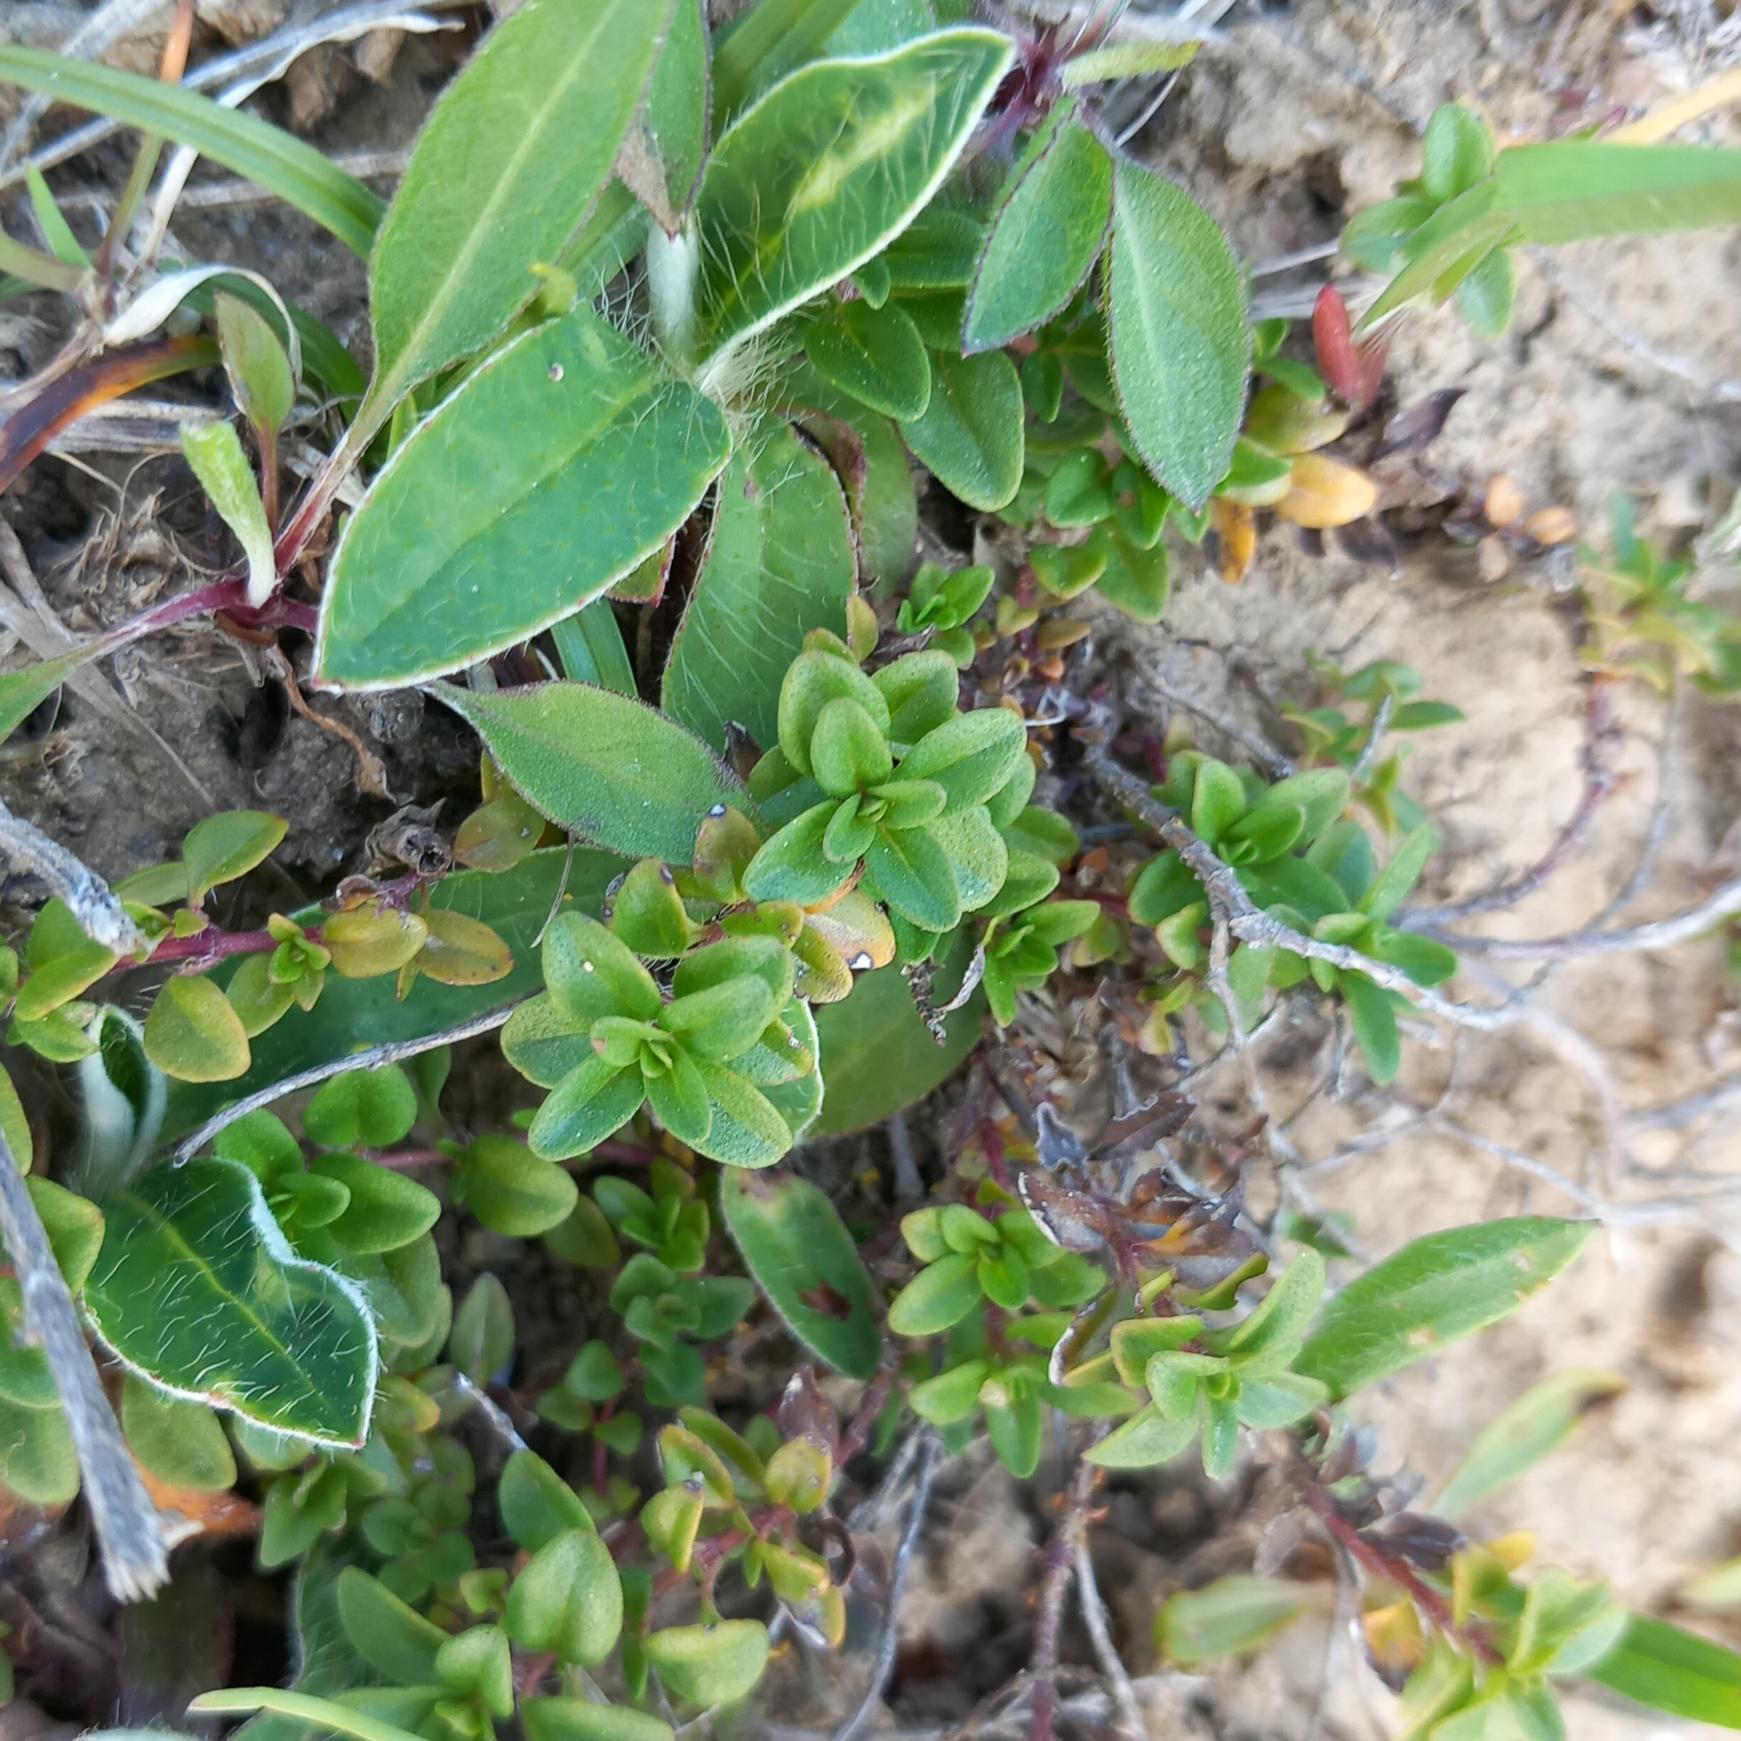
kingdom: Plantae
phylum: Tracheophyta
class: Magnoliopsida
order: Lamiales
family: Lamiaceae
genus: Thymus
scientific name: Thymus pulegioides
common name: Bredbladet timian
